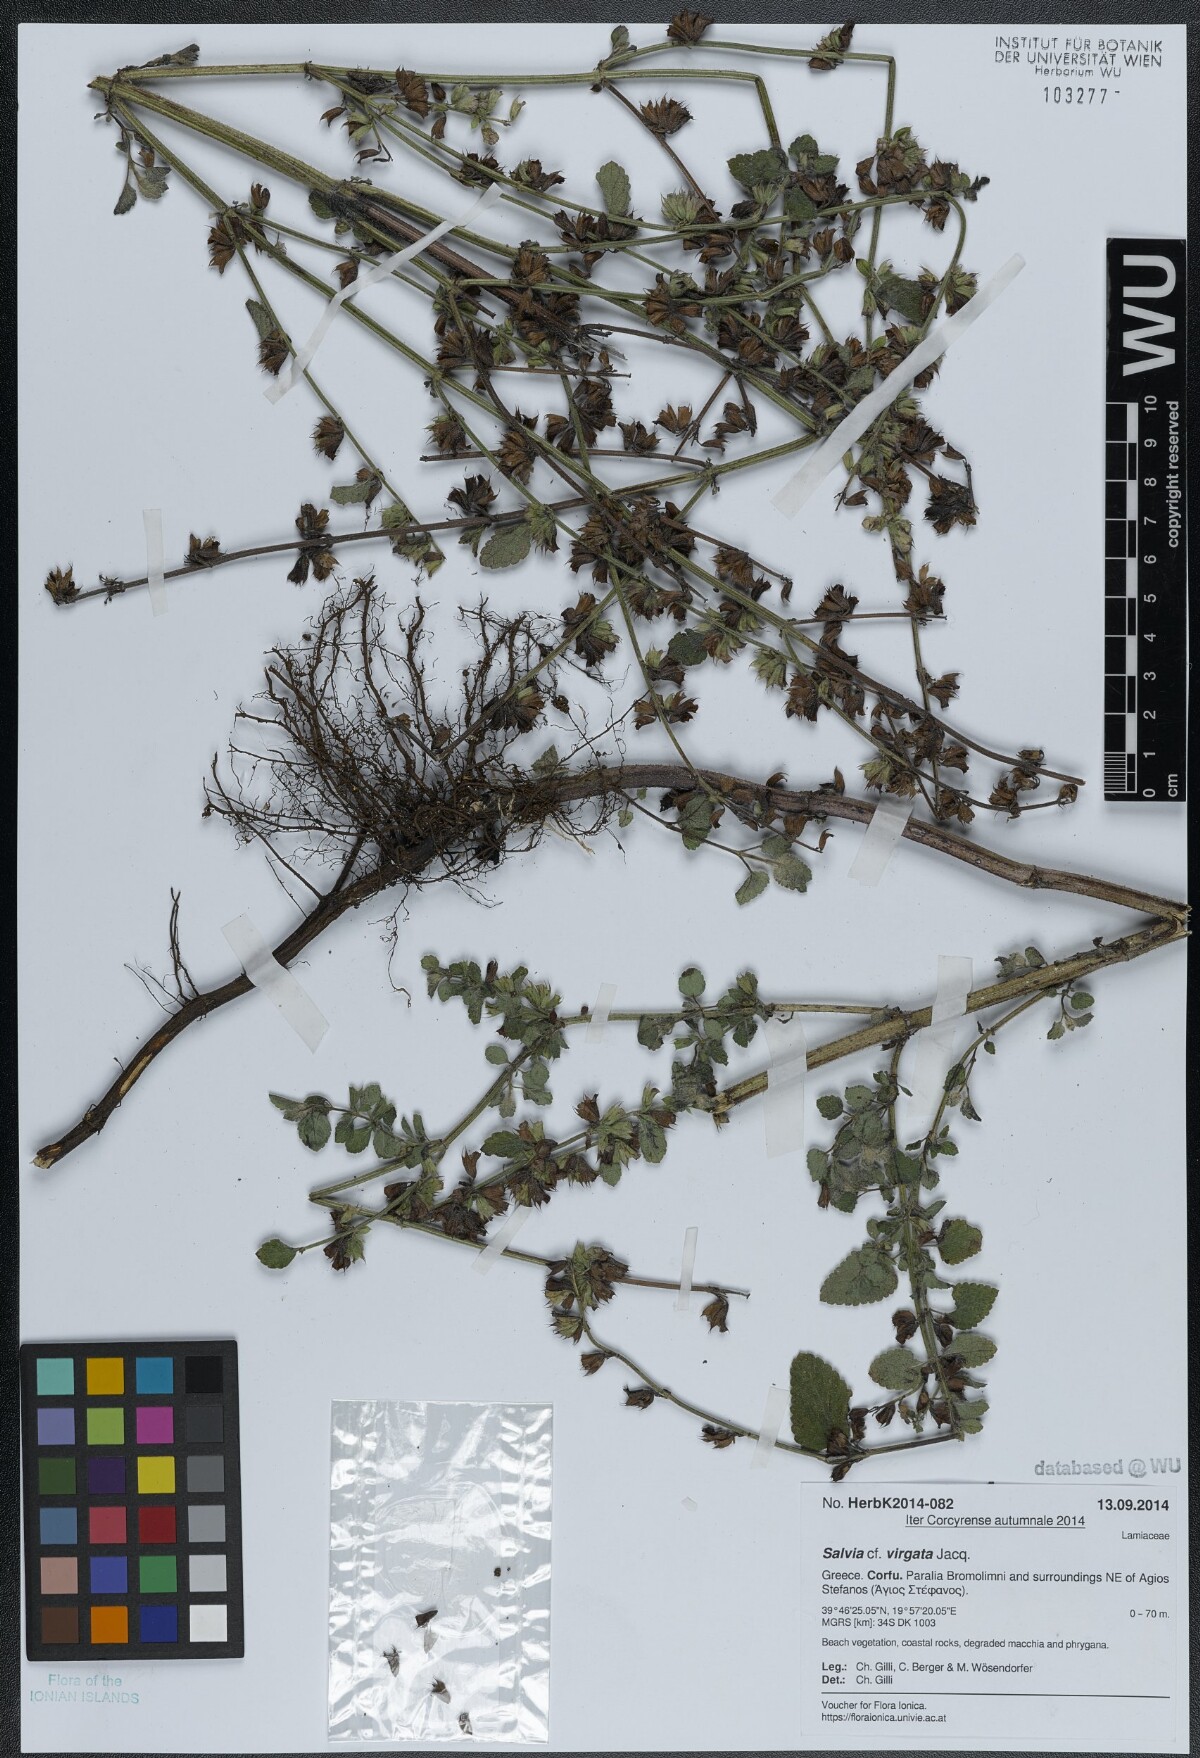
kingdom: Plantae
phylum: Tracheophyta
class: Magnoliopsida
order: Lamiales
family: Lamiaceae
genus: Salvia
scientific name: Salvia virgata
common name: Wand sage
